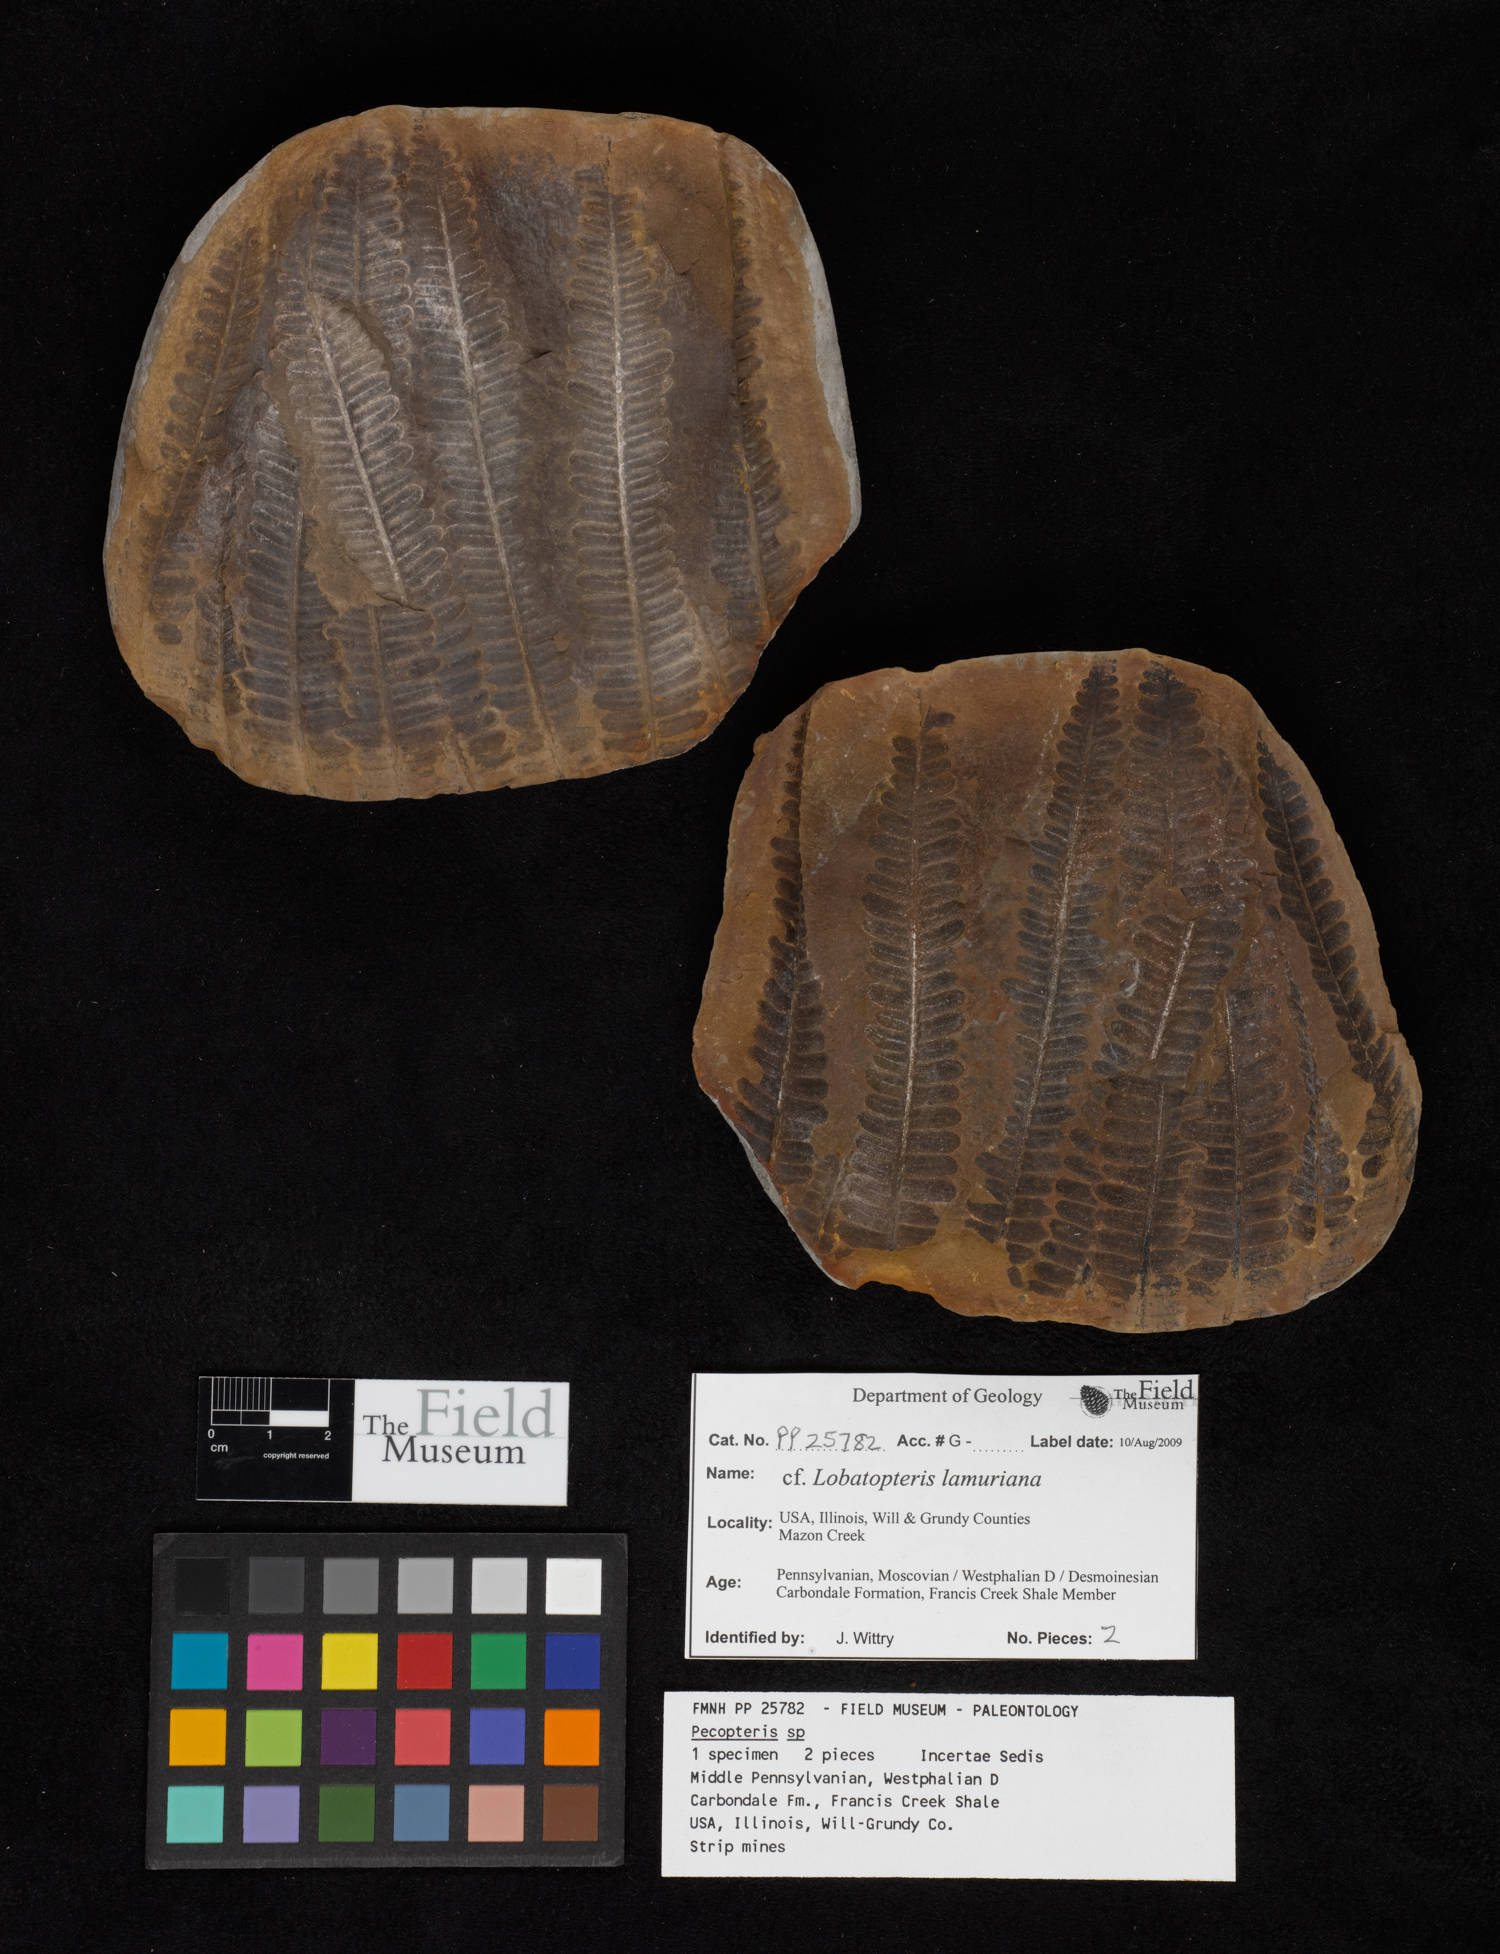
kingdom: Plantae
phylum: Tracheophyta
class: Polypodiopsida
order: Marattiales
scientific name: Marattiales
